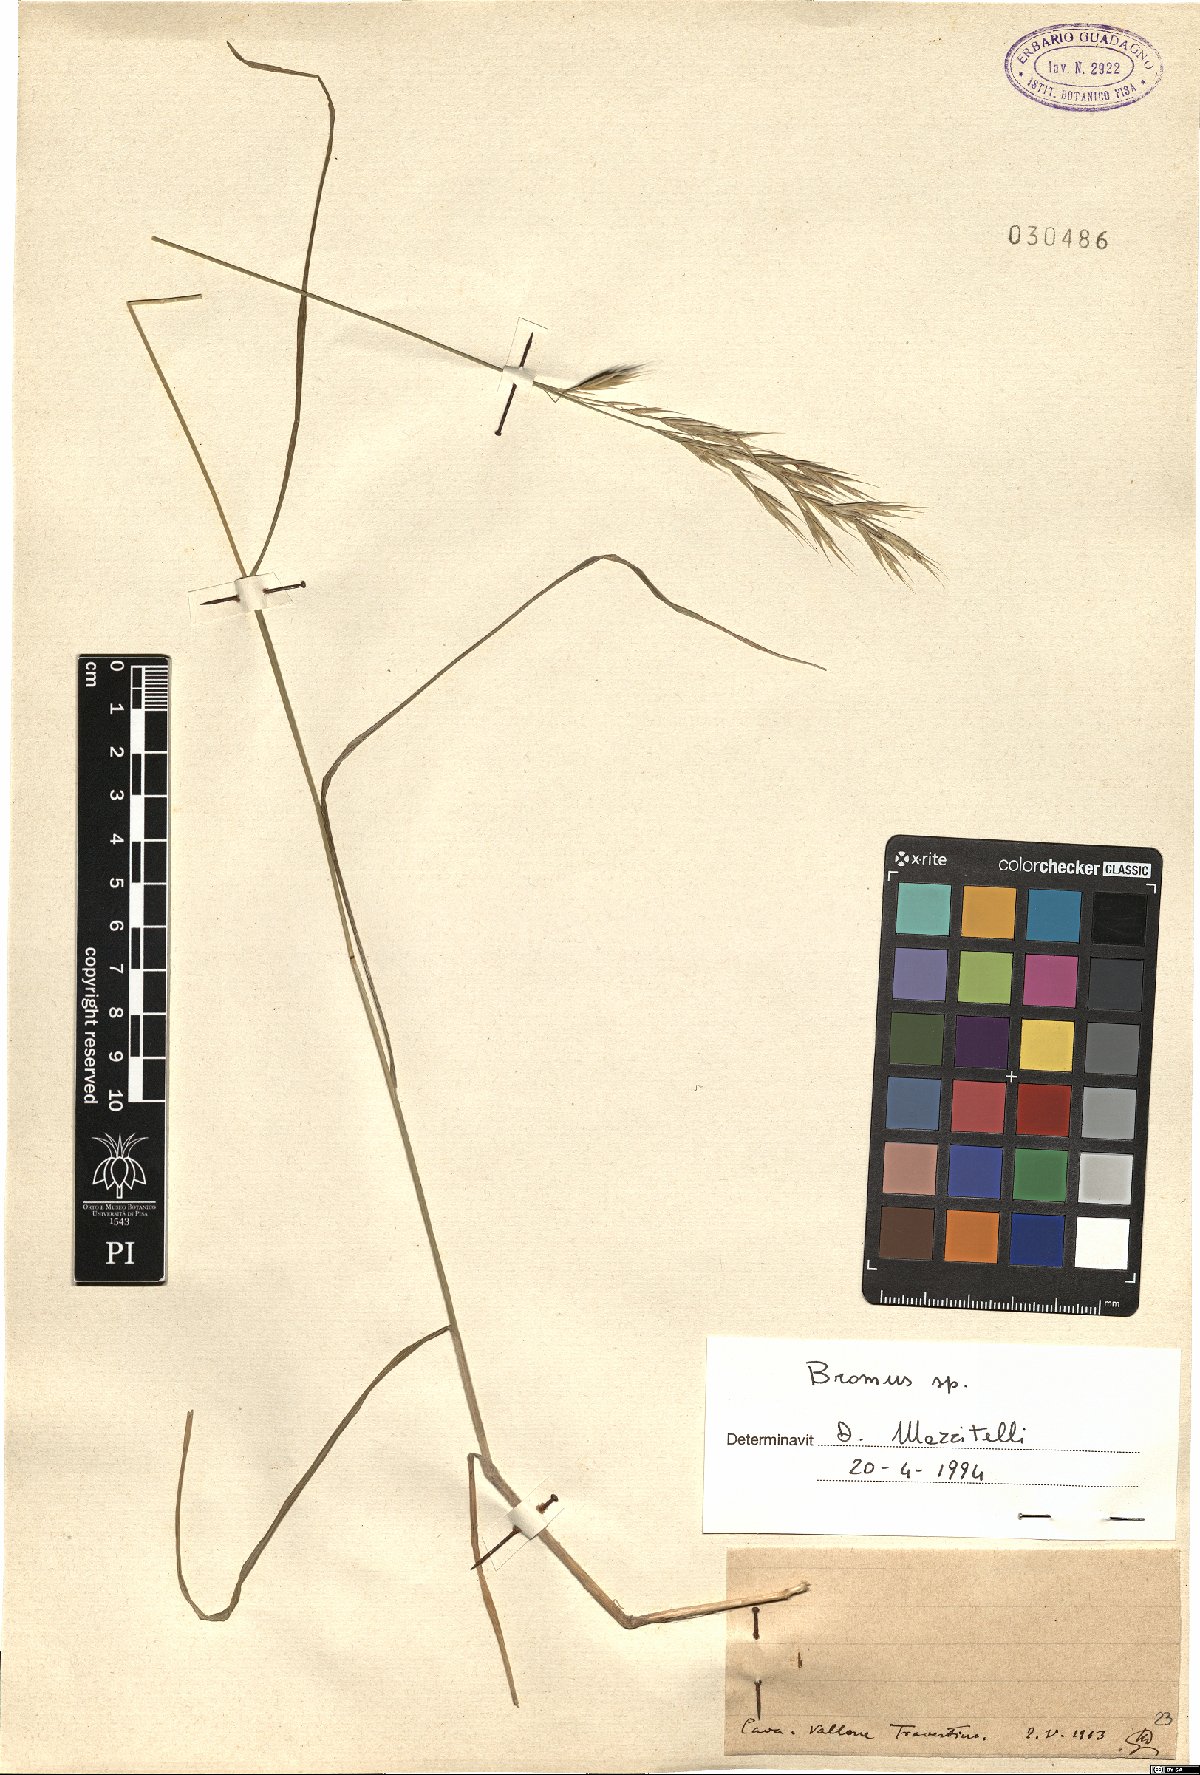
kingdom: Plantae
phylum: Tracheophyta
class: Liliopsida
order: Poales
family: Poaceae
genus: Bromus
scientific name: Bromus
